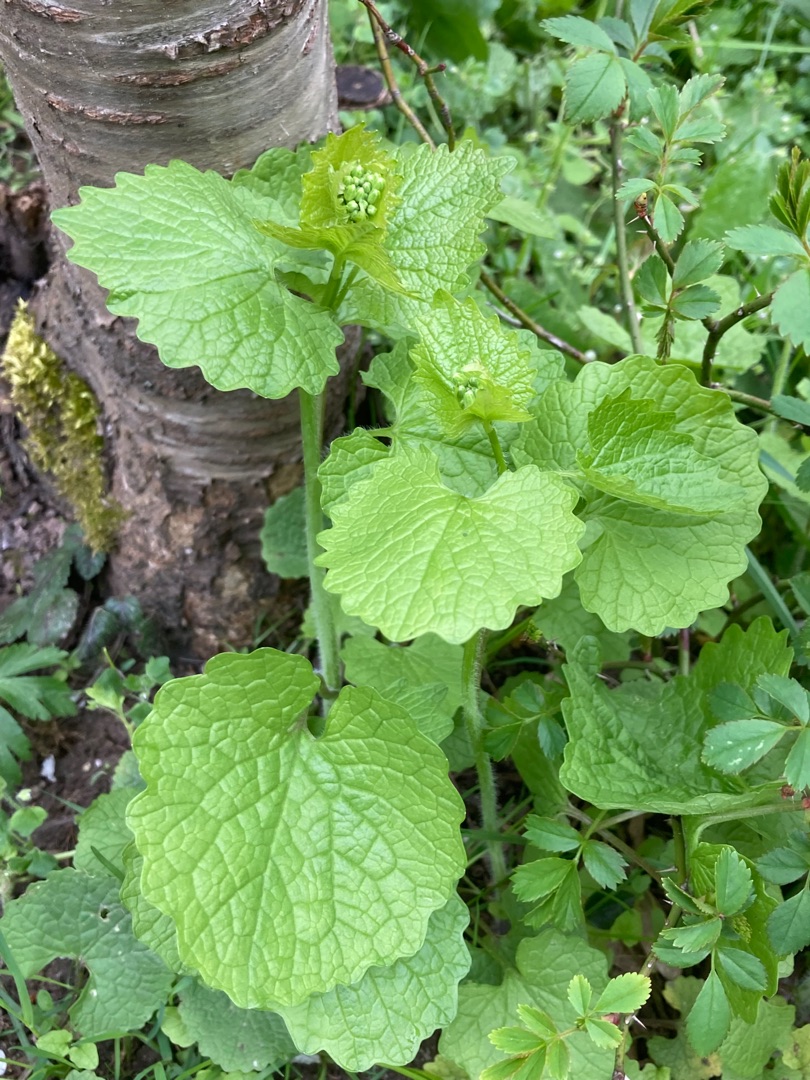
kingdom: Plantae
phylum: Tracheophyta
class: Magnoliopsida
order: Brassicales
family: Brassicaceae
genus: Alliaria
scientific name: Alliaria petiolata
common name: Løgkarse
